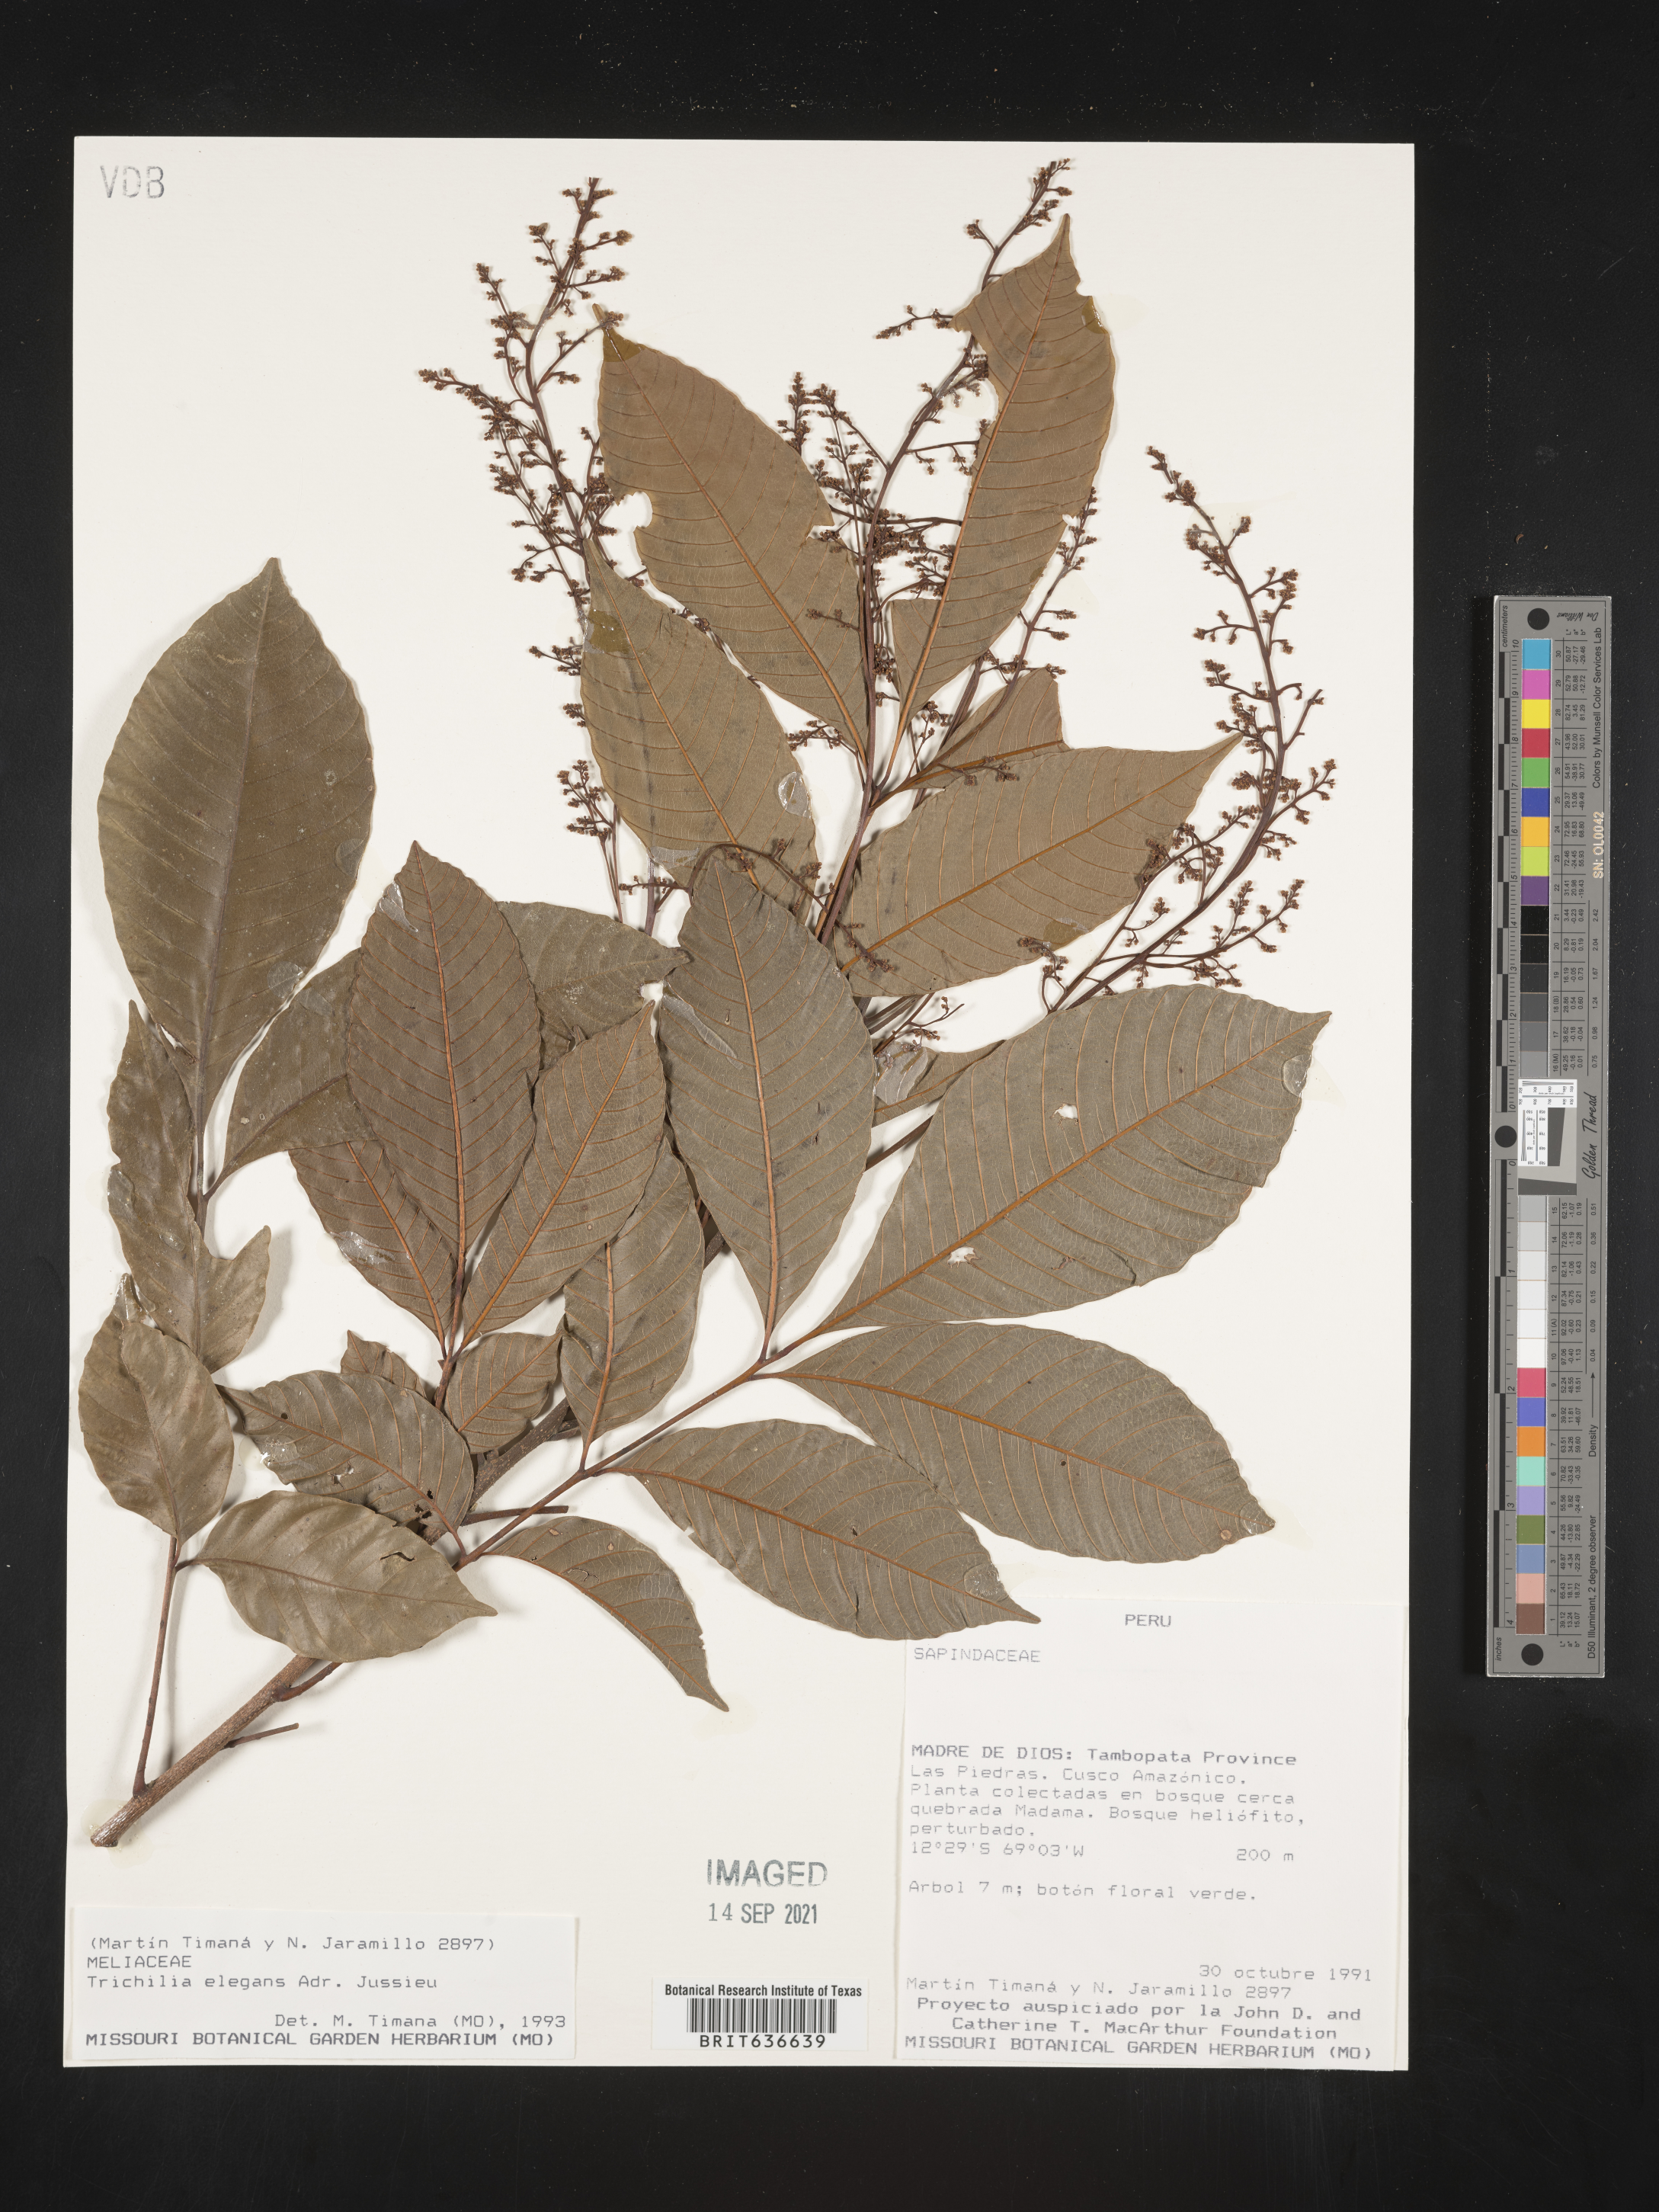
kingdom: Plantae
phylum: Tracheophyta
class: Magnoliopsida
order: Sapindales
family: Meliaceae
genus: Trichilia
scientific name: Trichilia
